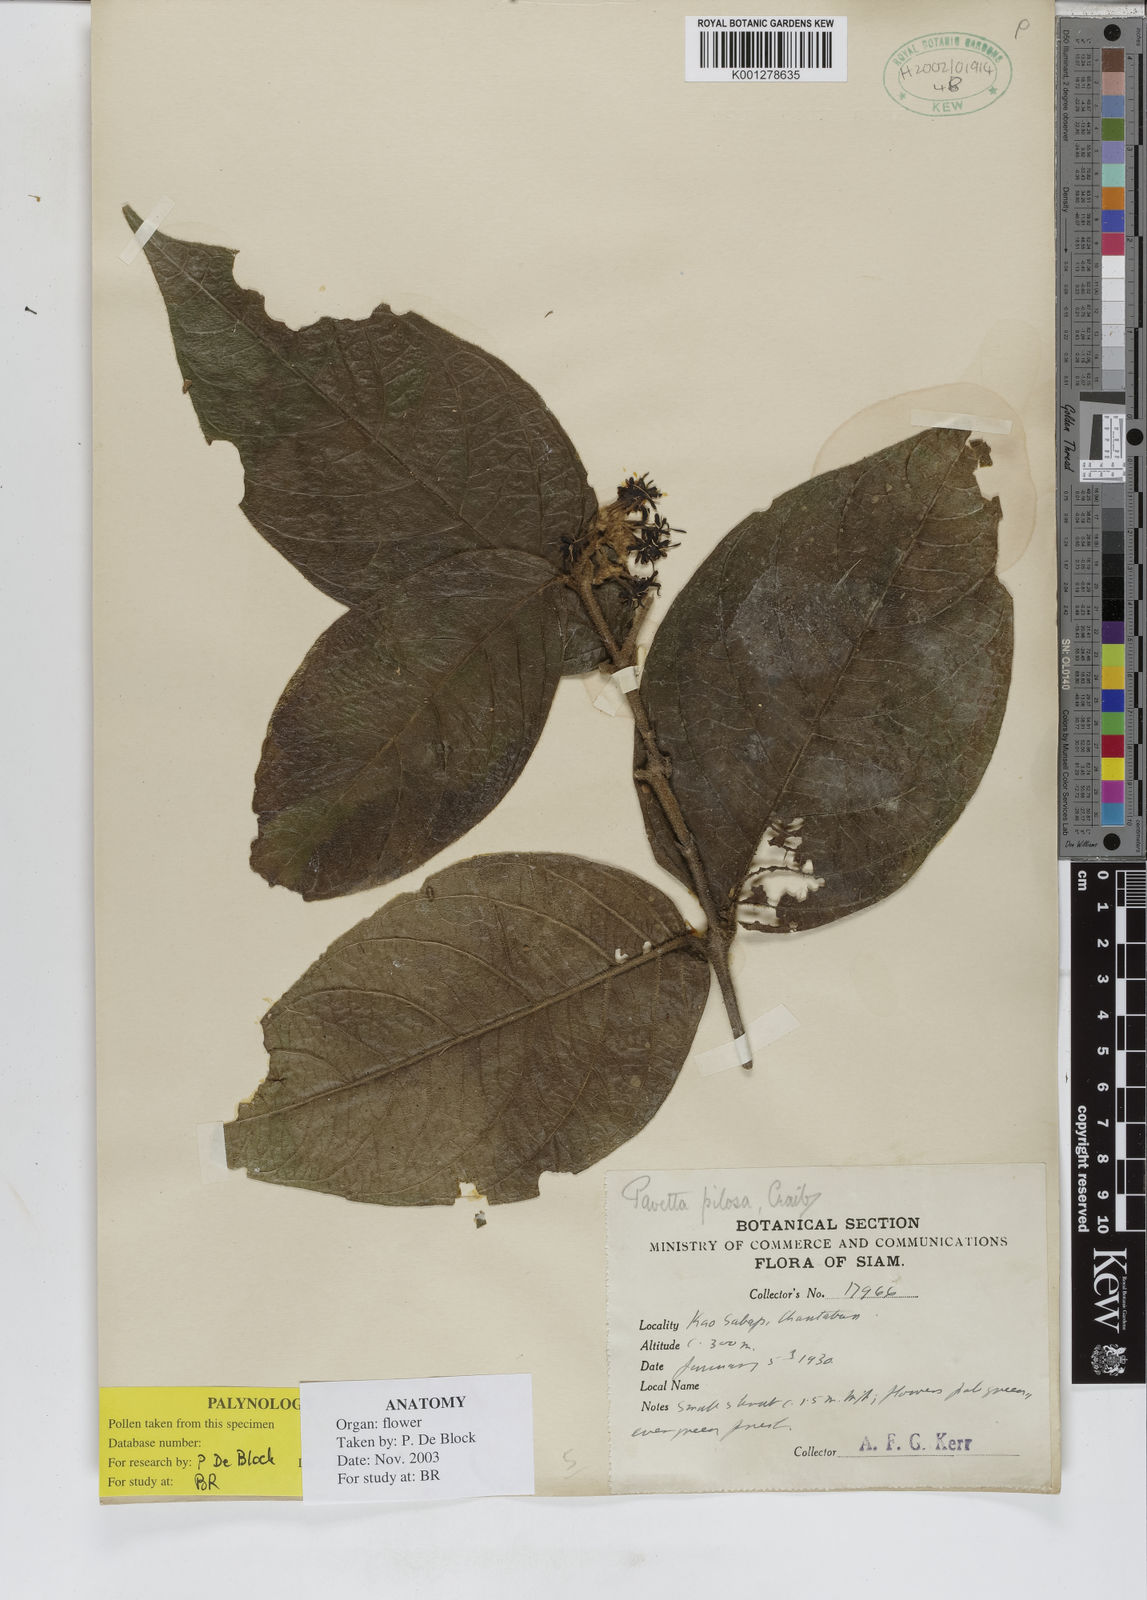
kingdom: Plantae
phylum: Tracheophyta
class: Magnoliopsida
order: Gentianales
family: Rubiaceae
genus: Tarenna
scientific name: Tarenna pilosa
